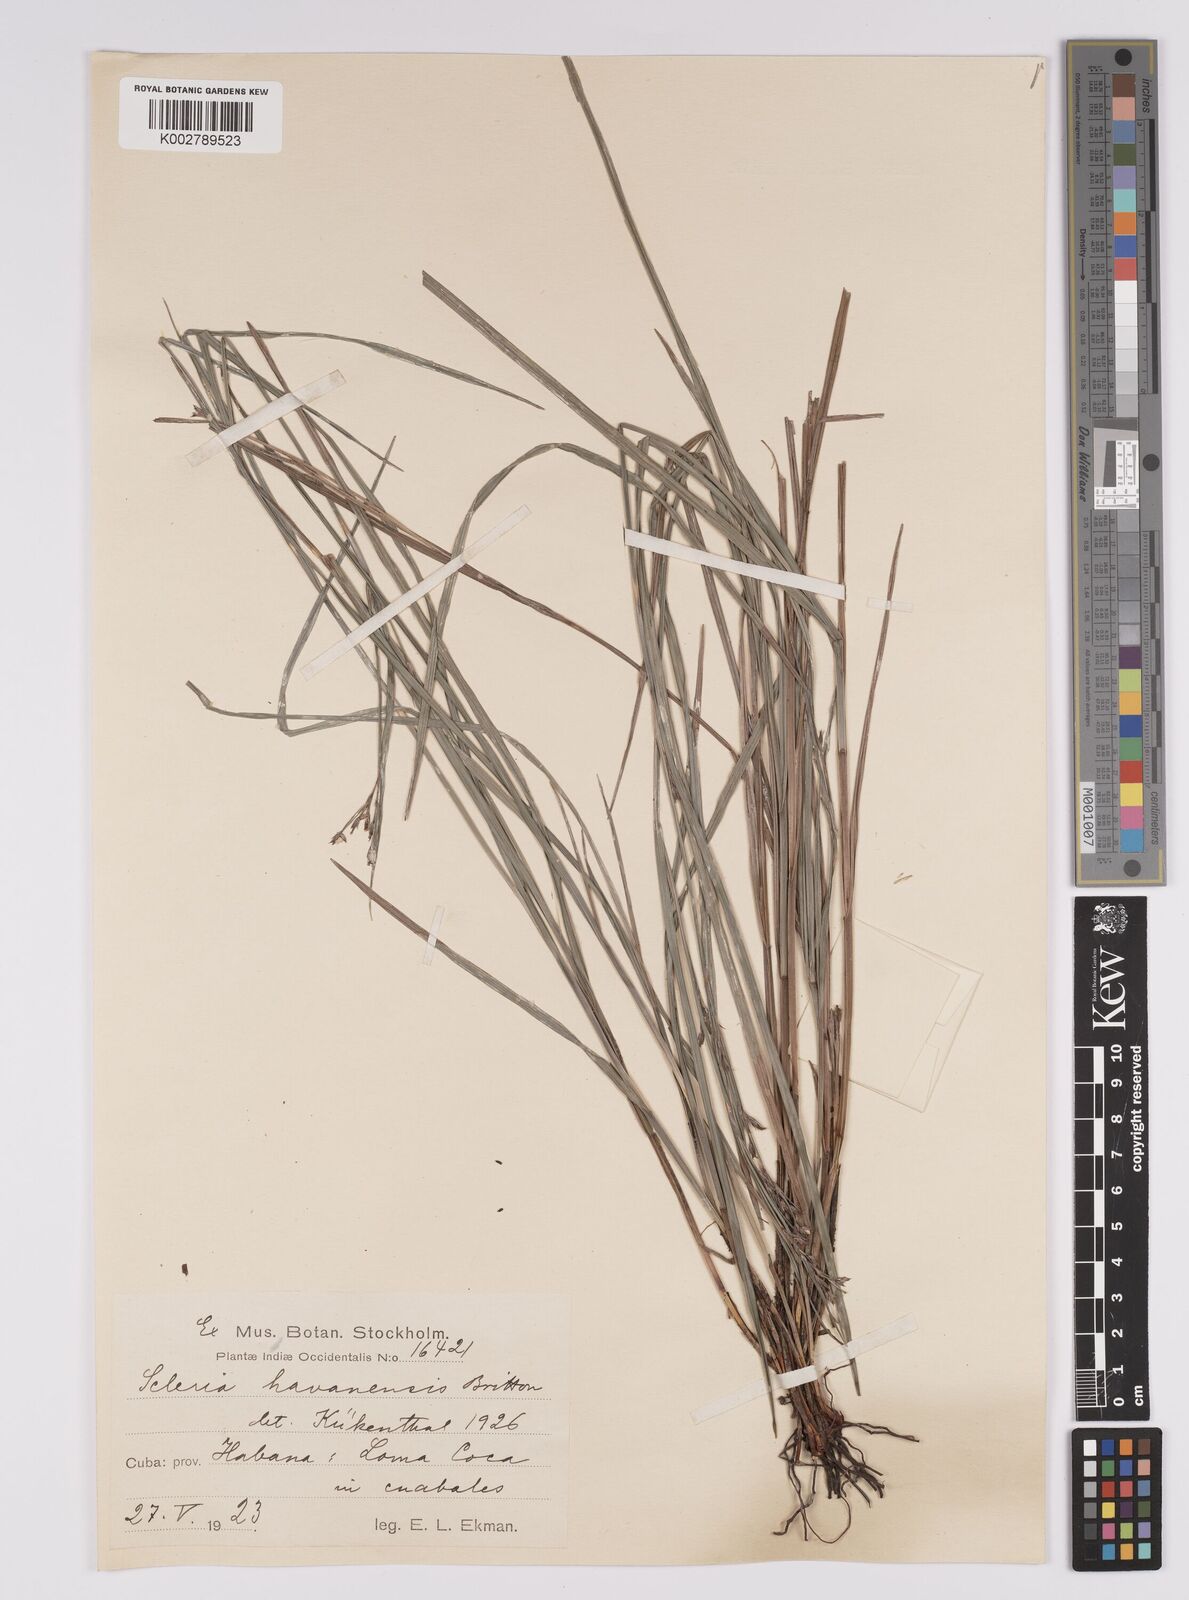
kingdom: Plantae
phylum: Tracheophyta
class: Liliopsida
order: Poales
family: Cyperaceae
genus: Scleria
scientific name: Scleria havanensis
